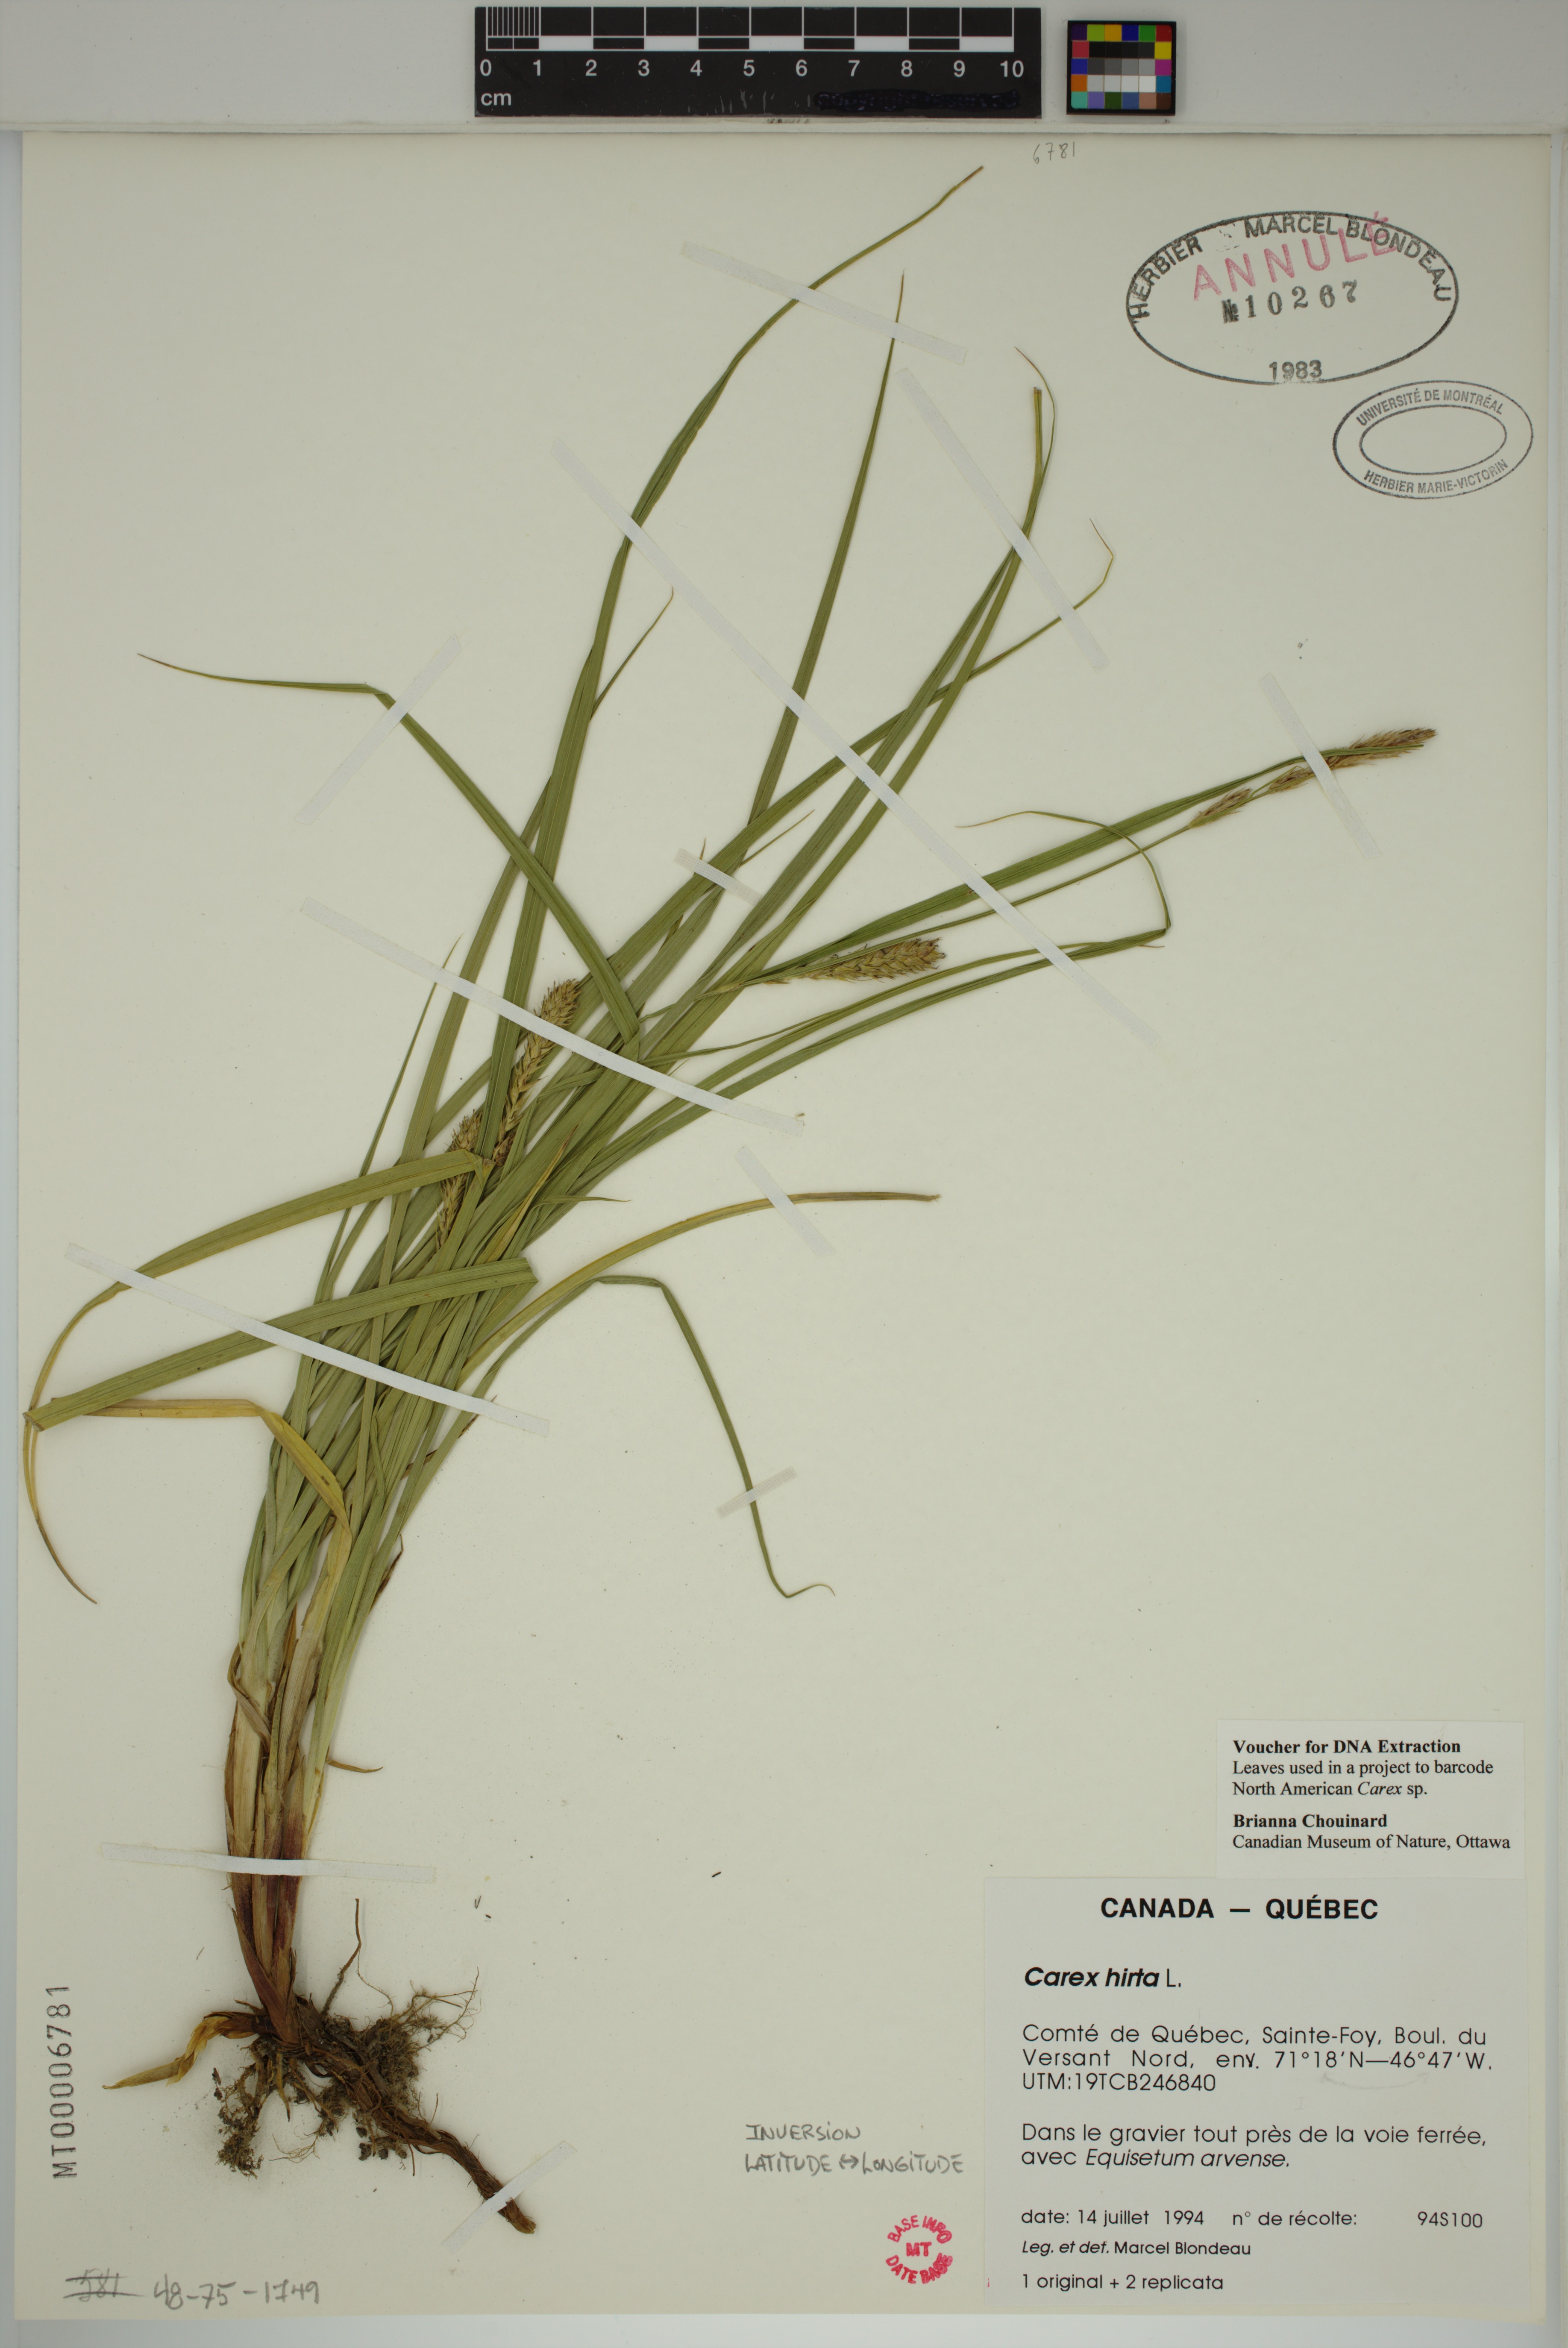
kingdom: Plantae
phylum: Tracheophyta
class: Liliopsida
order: Poales
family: Cyperaceae
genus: Carex
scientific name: Carex hirta
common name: Hairy sedge
